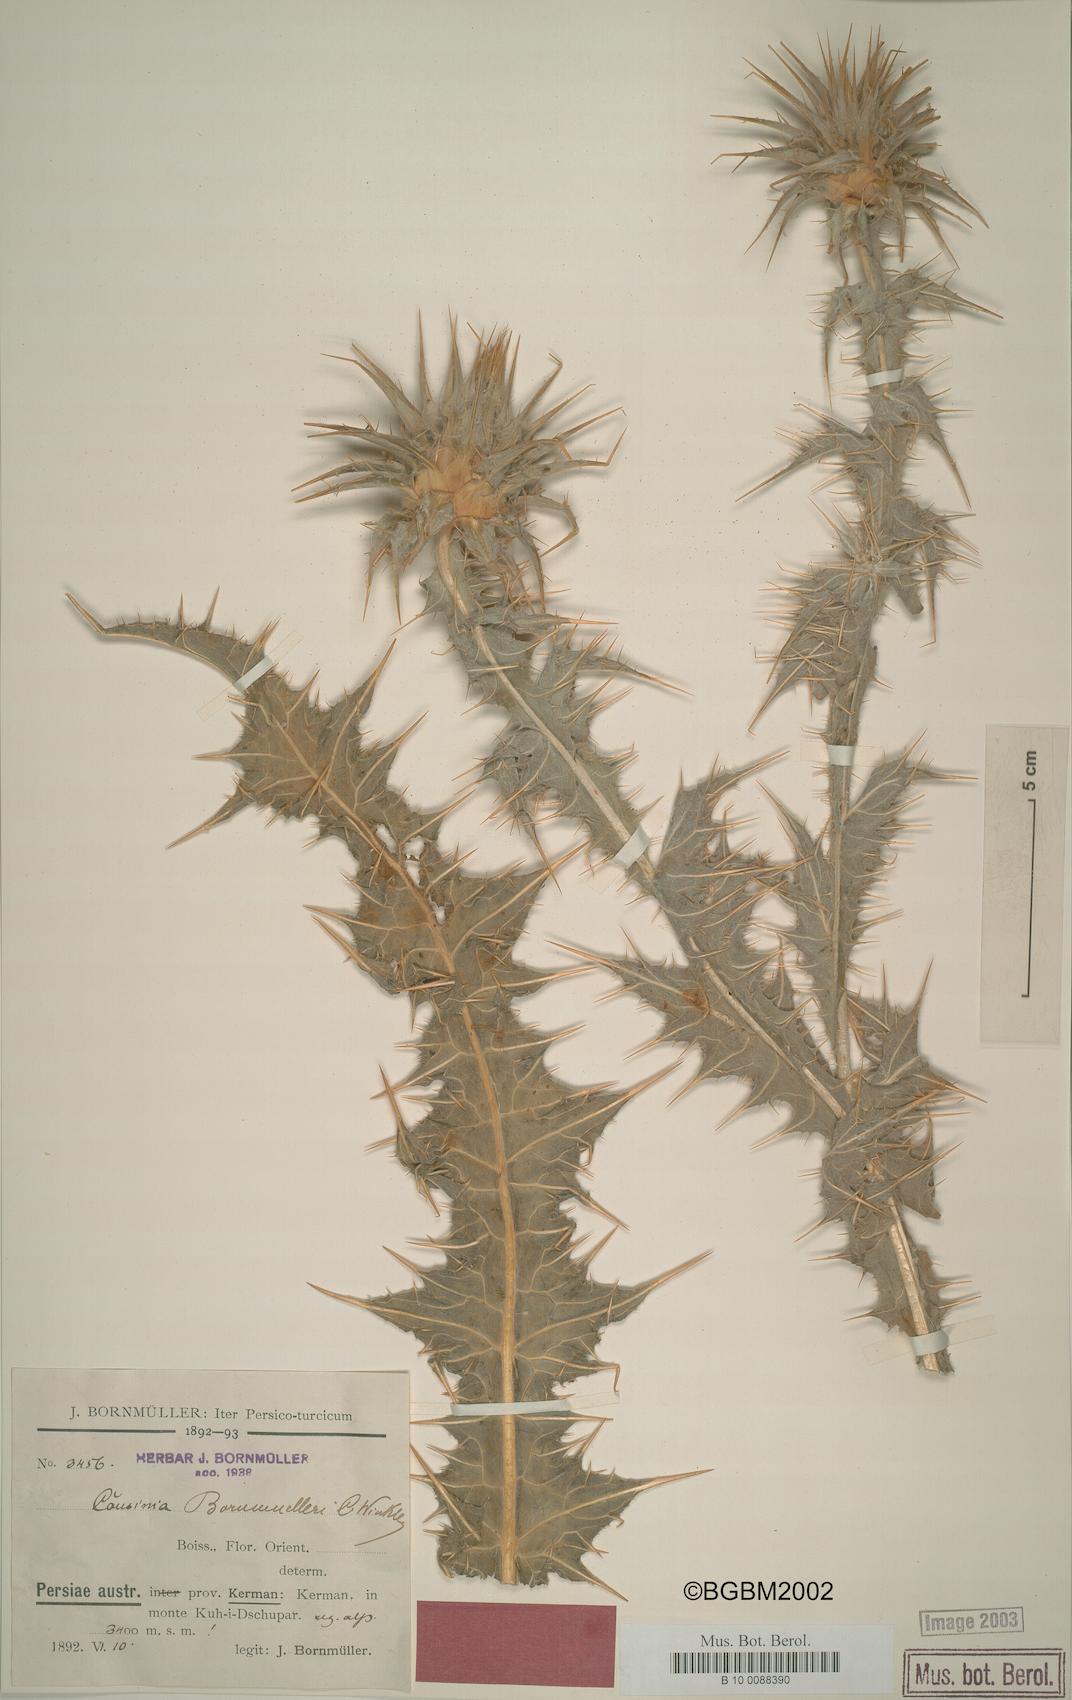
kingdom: Plantae
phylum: Tracheophyta
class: Magnoliopsida
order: Asterales
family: Asteraceae
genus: Cousinia
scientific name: Cousinia onopordioides
